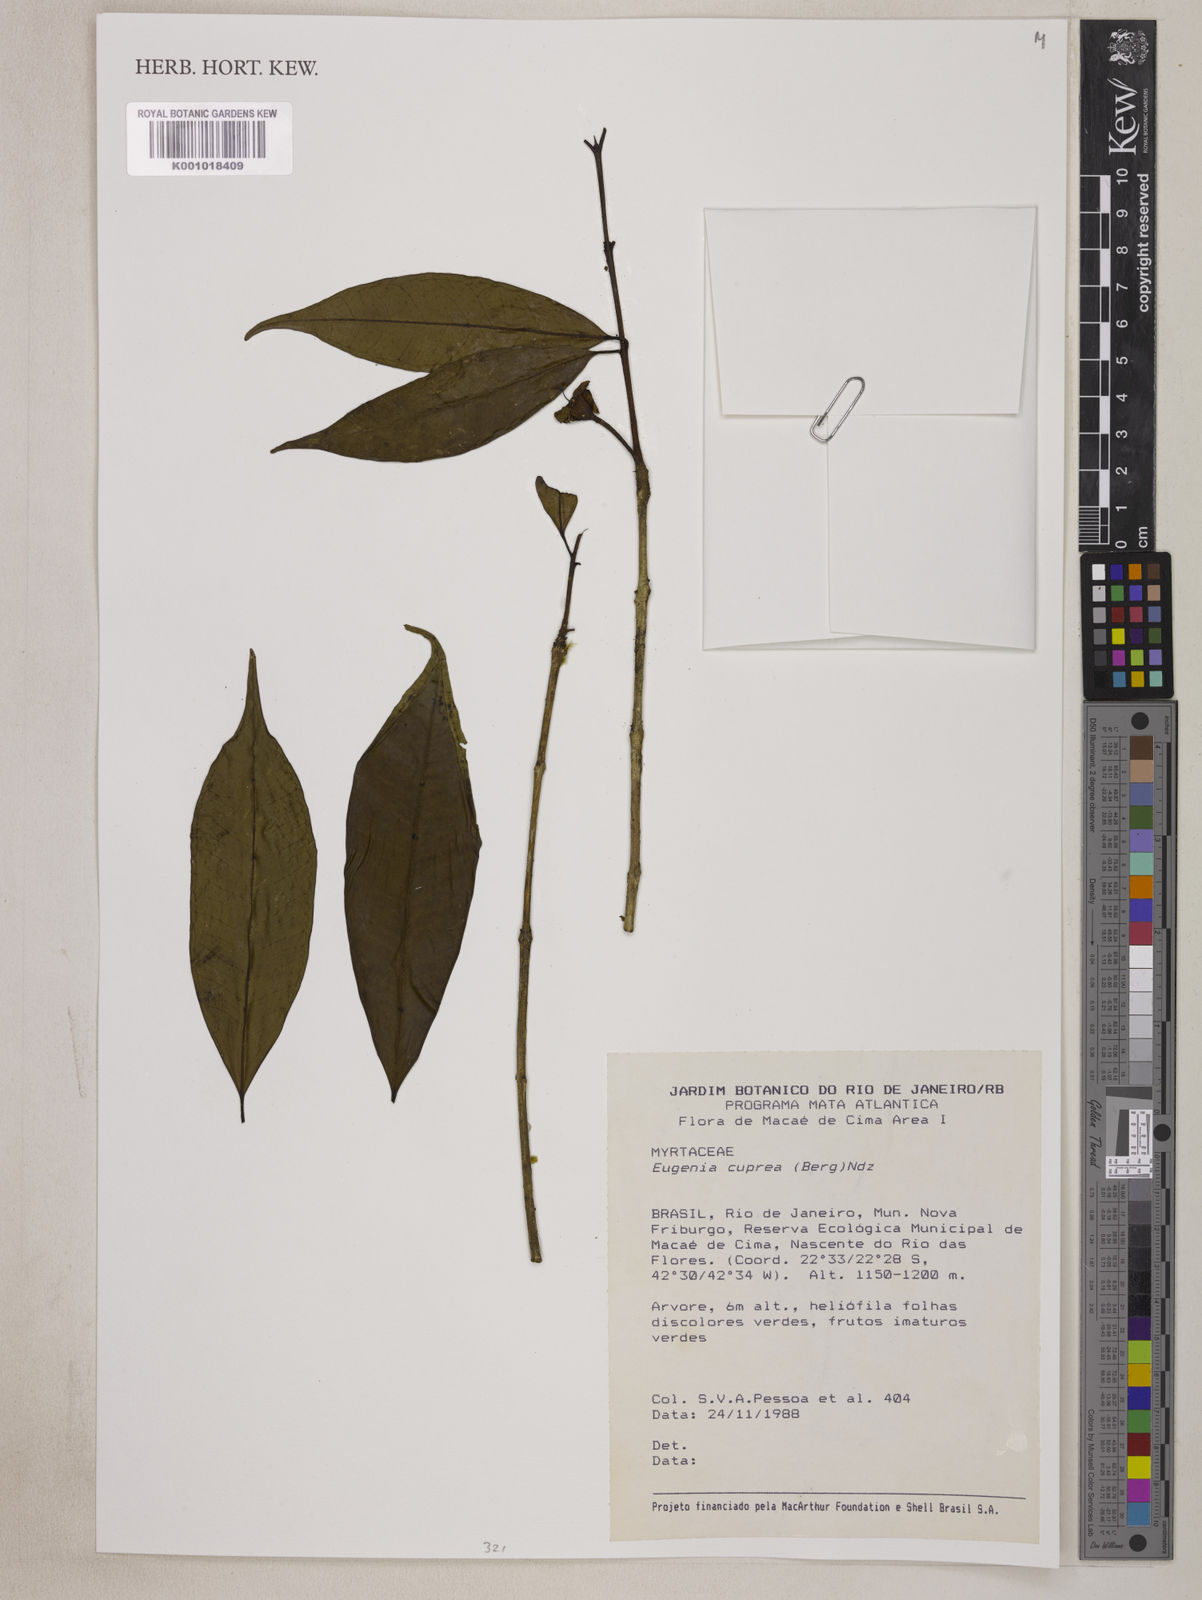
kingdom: Plantae
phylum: Tracheophyta
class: Magnoliopsida
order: Myrtales
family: Myrtaceae
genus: Eugenia
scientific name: Eugenia cuprea
